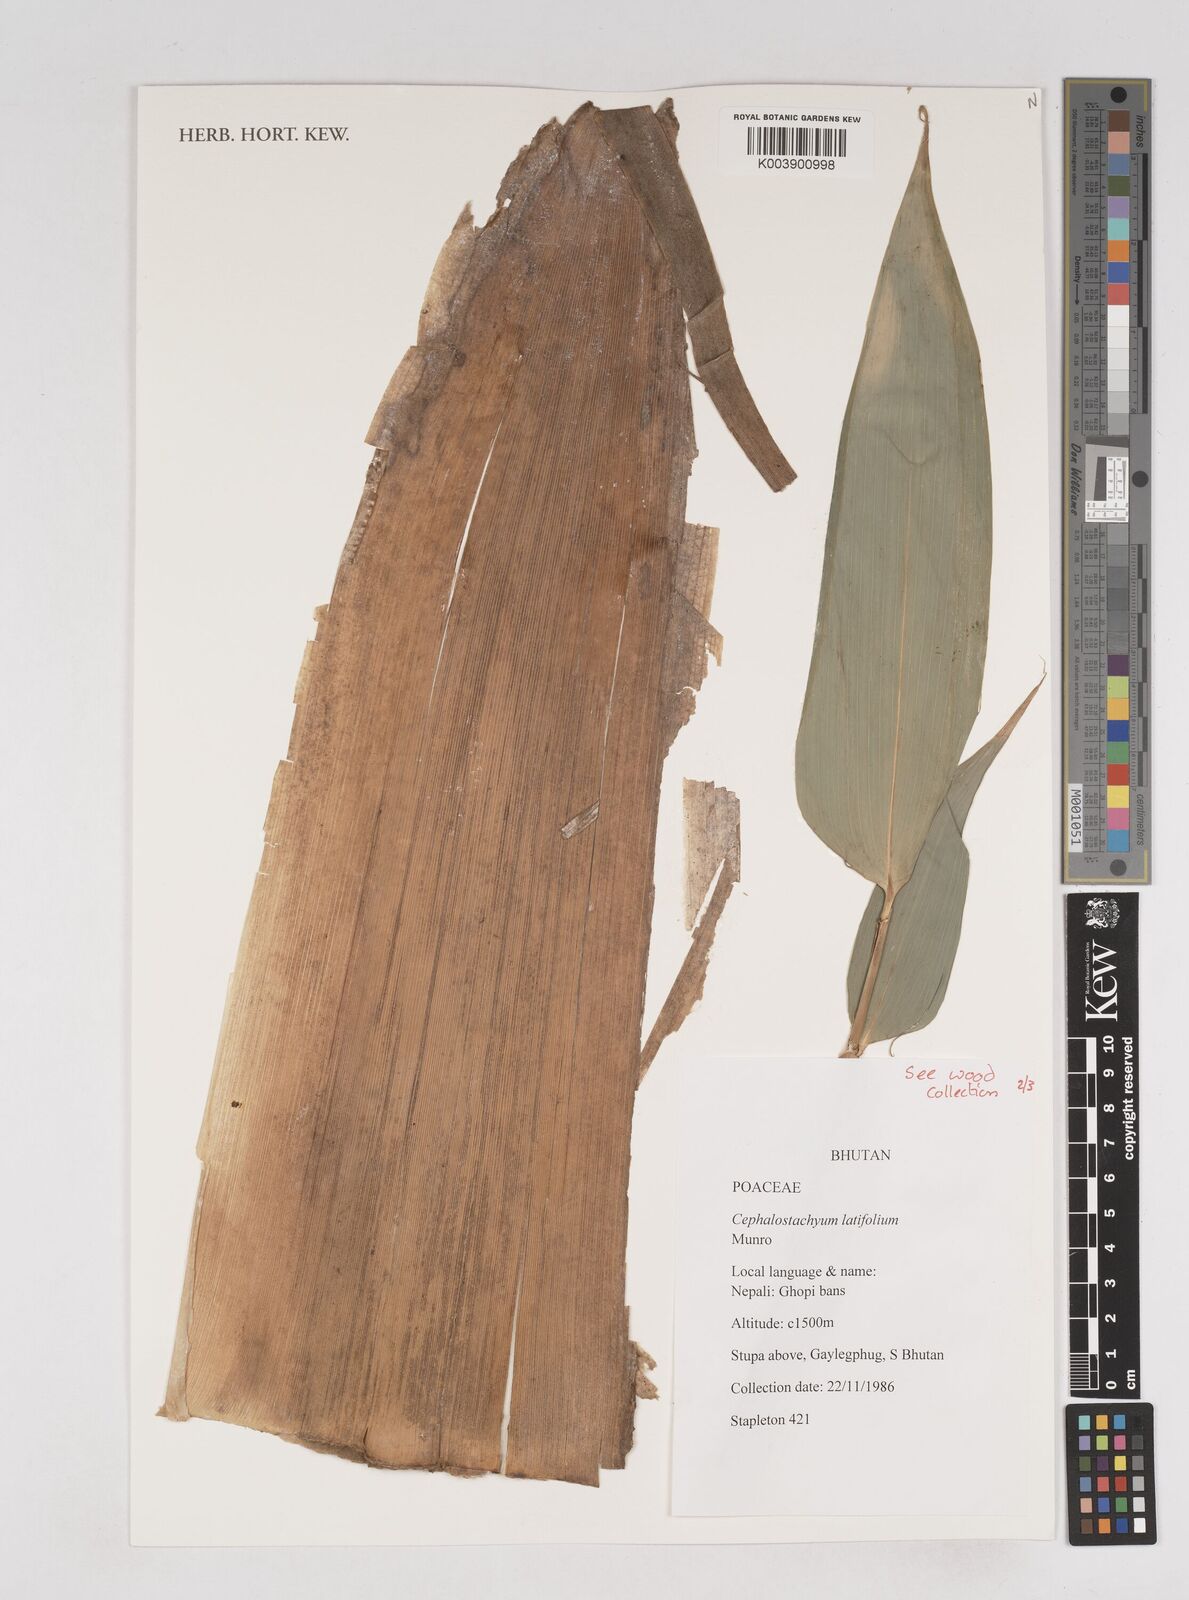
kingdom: Plantae
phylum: Tracheophyta
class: Liliopsida
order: Poales
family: Poaceae
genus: Cephalostachyum
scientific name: Cephalostachyum latifolium
